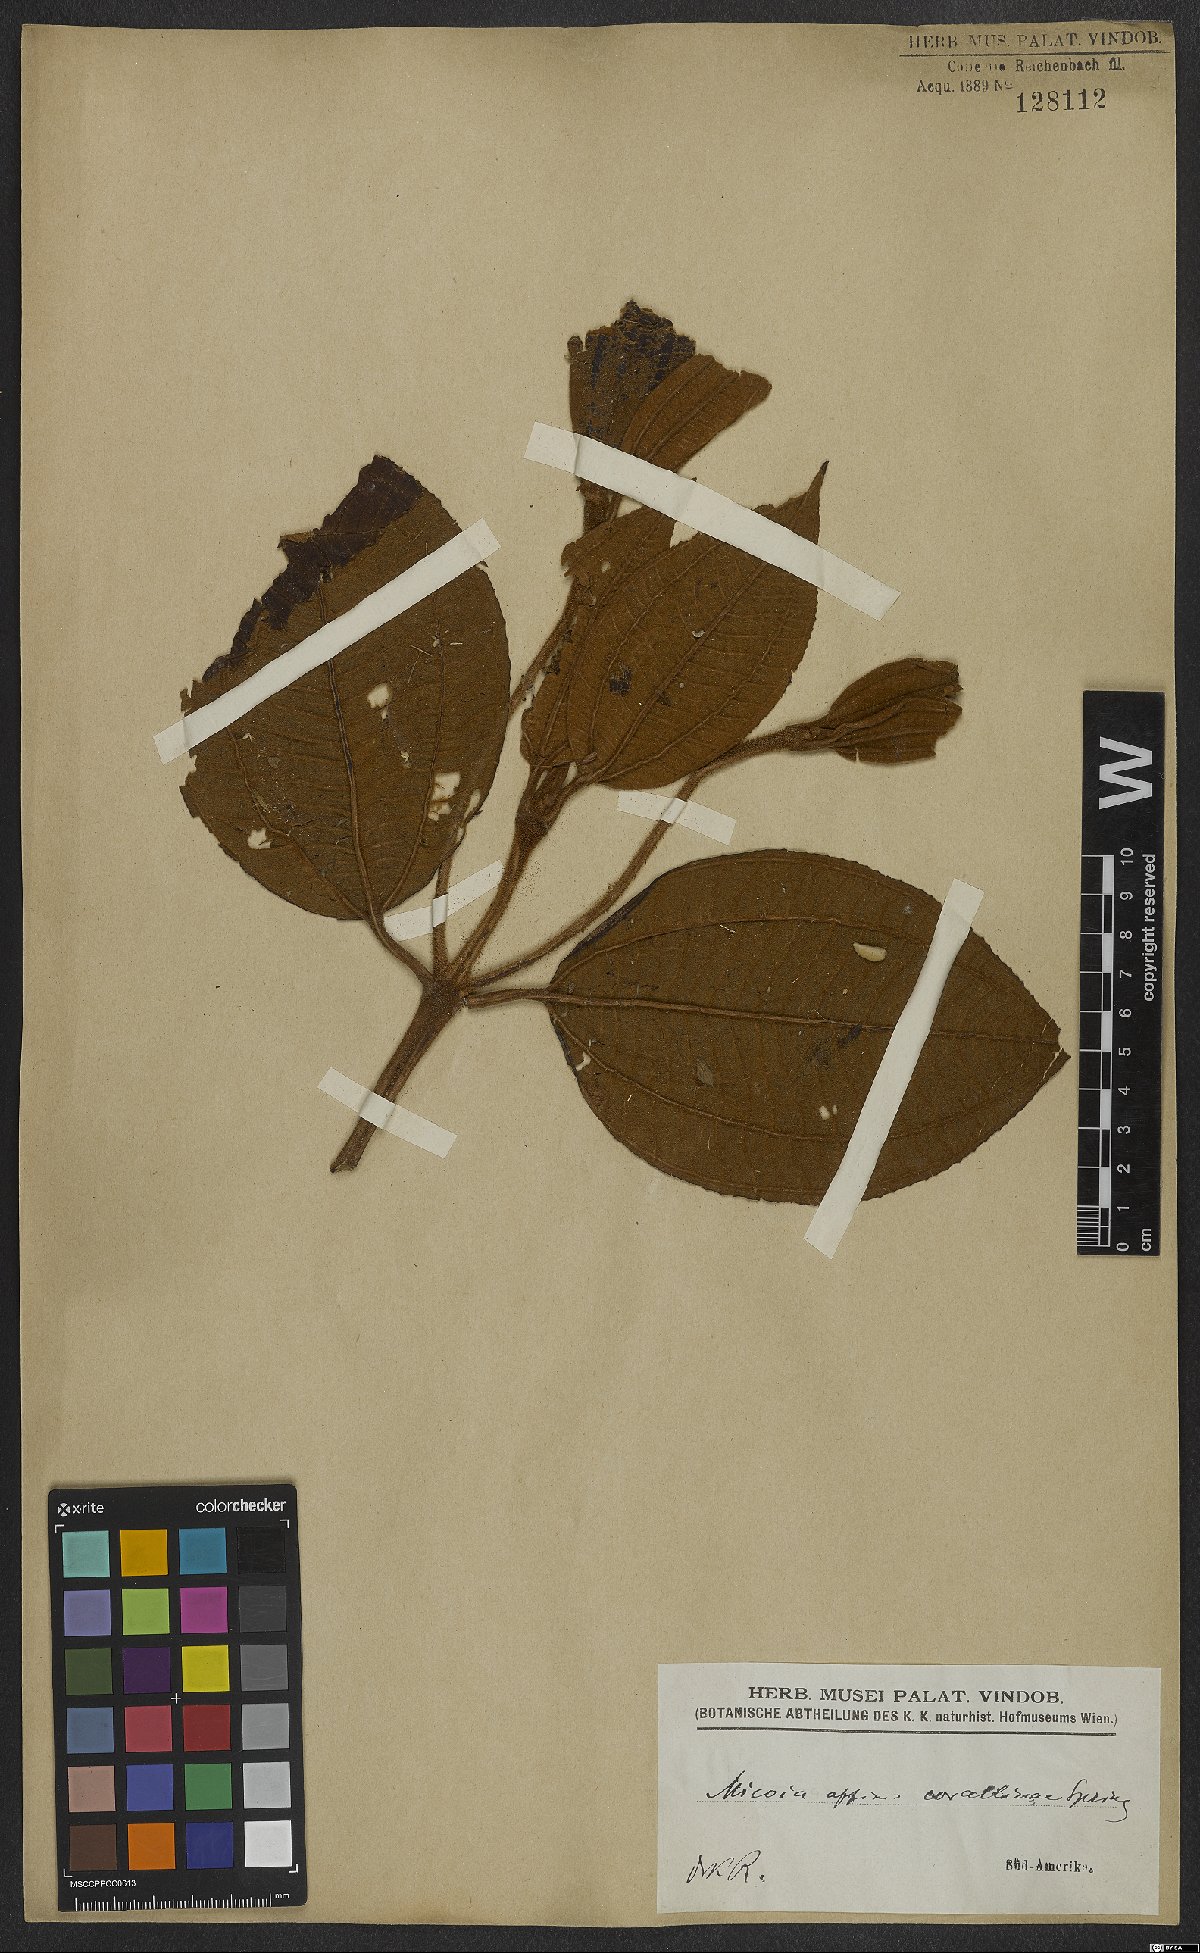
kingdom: Plantae
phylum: Tracheophyta
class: Magnoliopsida
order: Myrtales
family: Melastomataceae
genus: Miconia
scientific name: Miconia corallina
